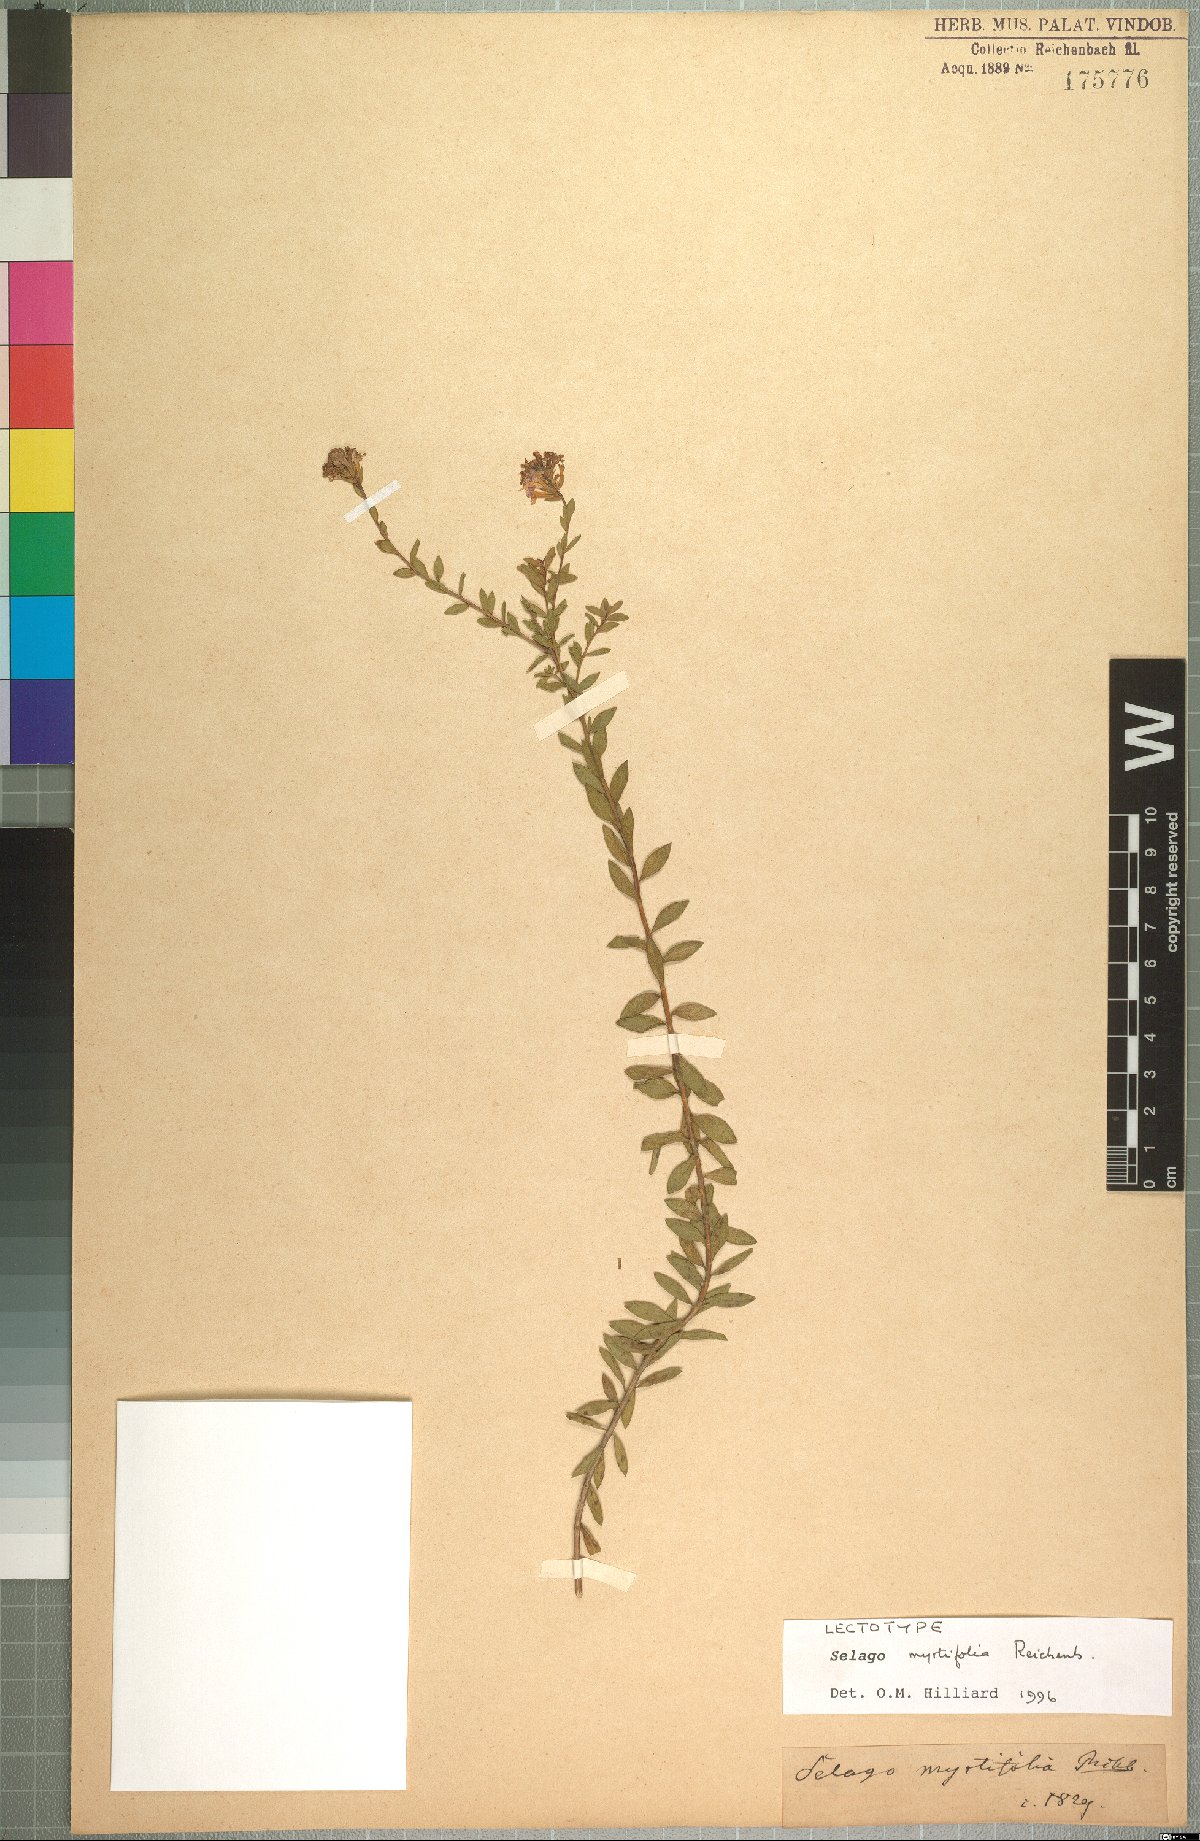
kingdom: Plantae
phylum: Tracheophyta
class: Magnoliopsida
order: Lamiales
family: Scrophulariaceae
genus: Selago
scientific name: Selago myrtifolia
